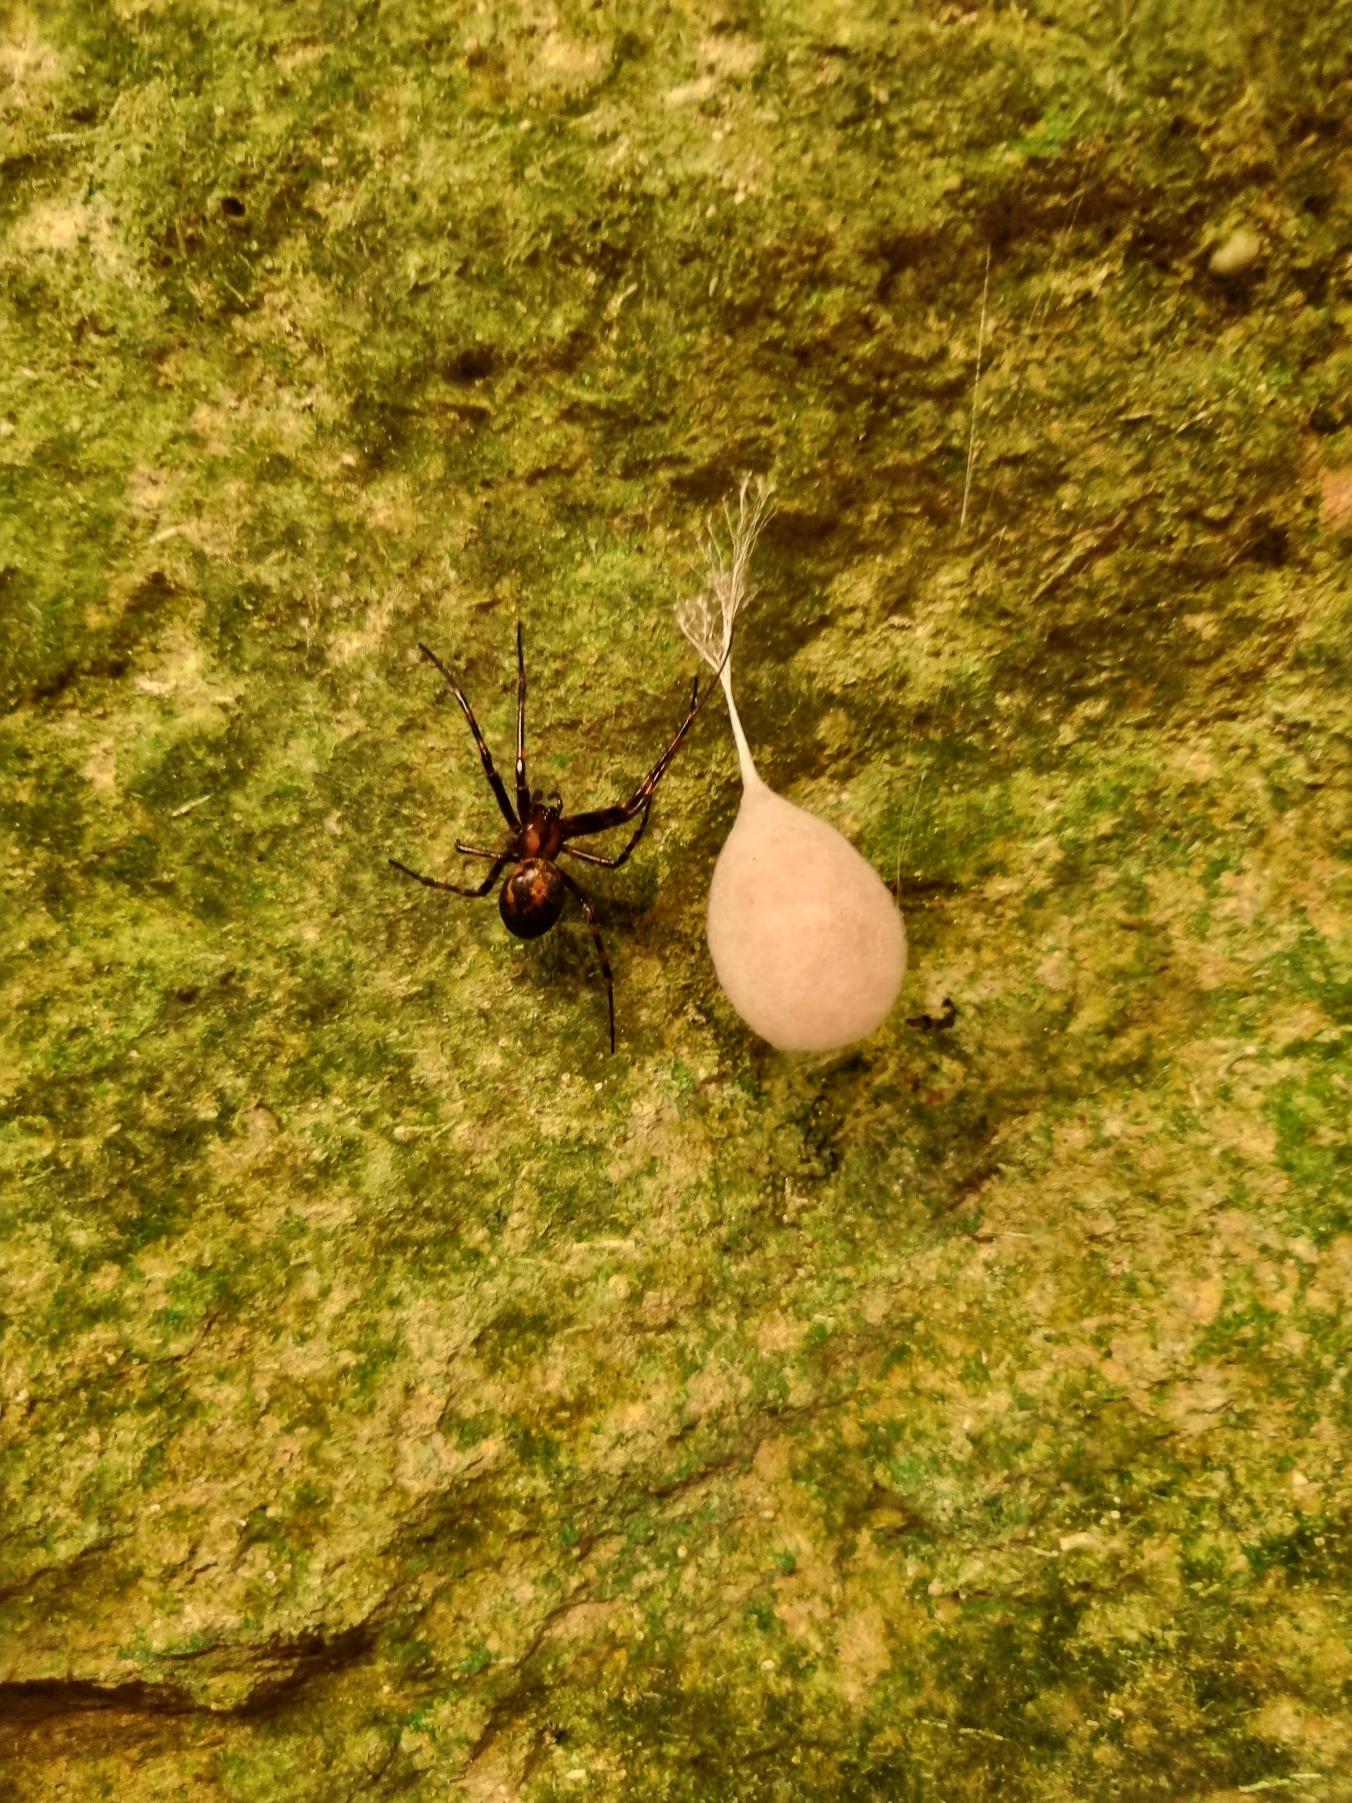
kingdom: Animalia
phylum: Arthropoda
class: Arachnida
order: Araneae
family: Tetragnathidae
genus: Meta
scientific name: Meta menardi
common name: Grotteedderkop
